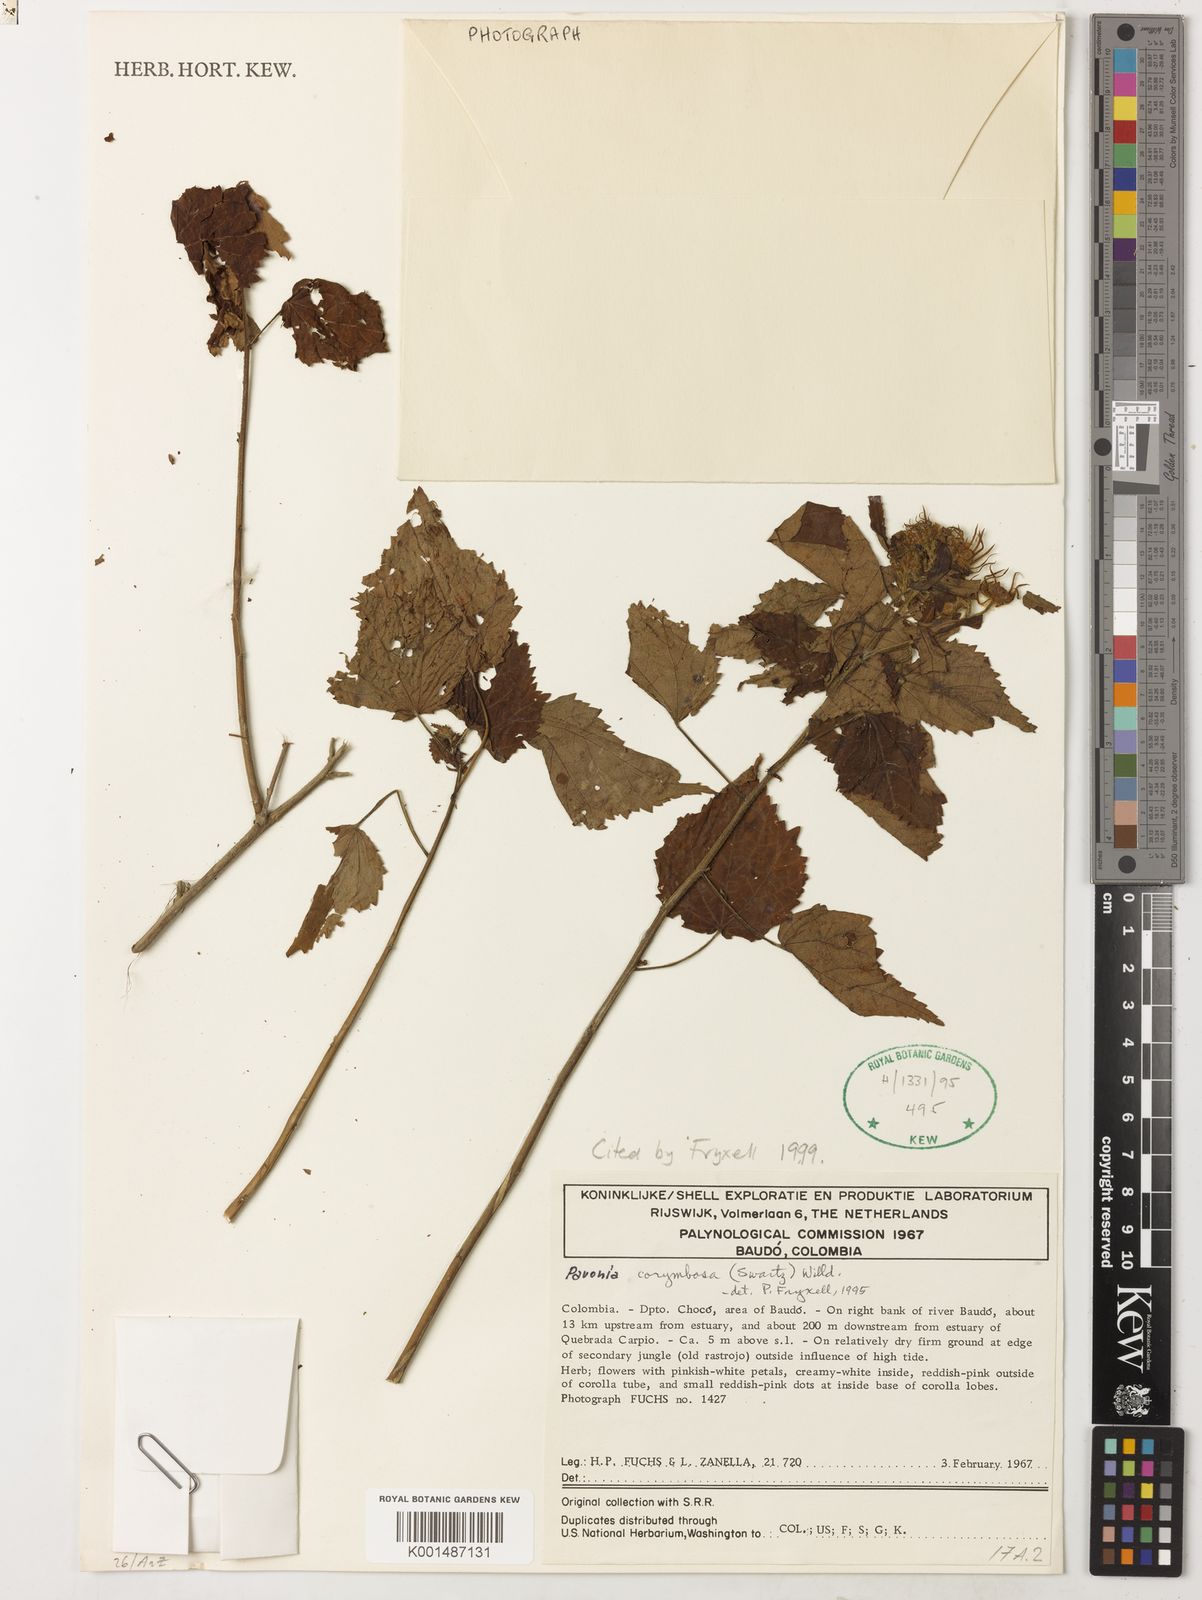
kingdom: Plantae
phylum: Tracheophyta
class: Magnoliopsida
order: Malvales
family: Malvaceae
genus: Pavonia
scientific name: Pavonia corymbosa
